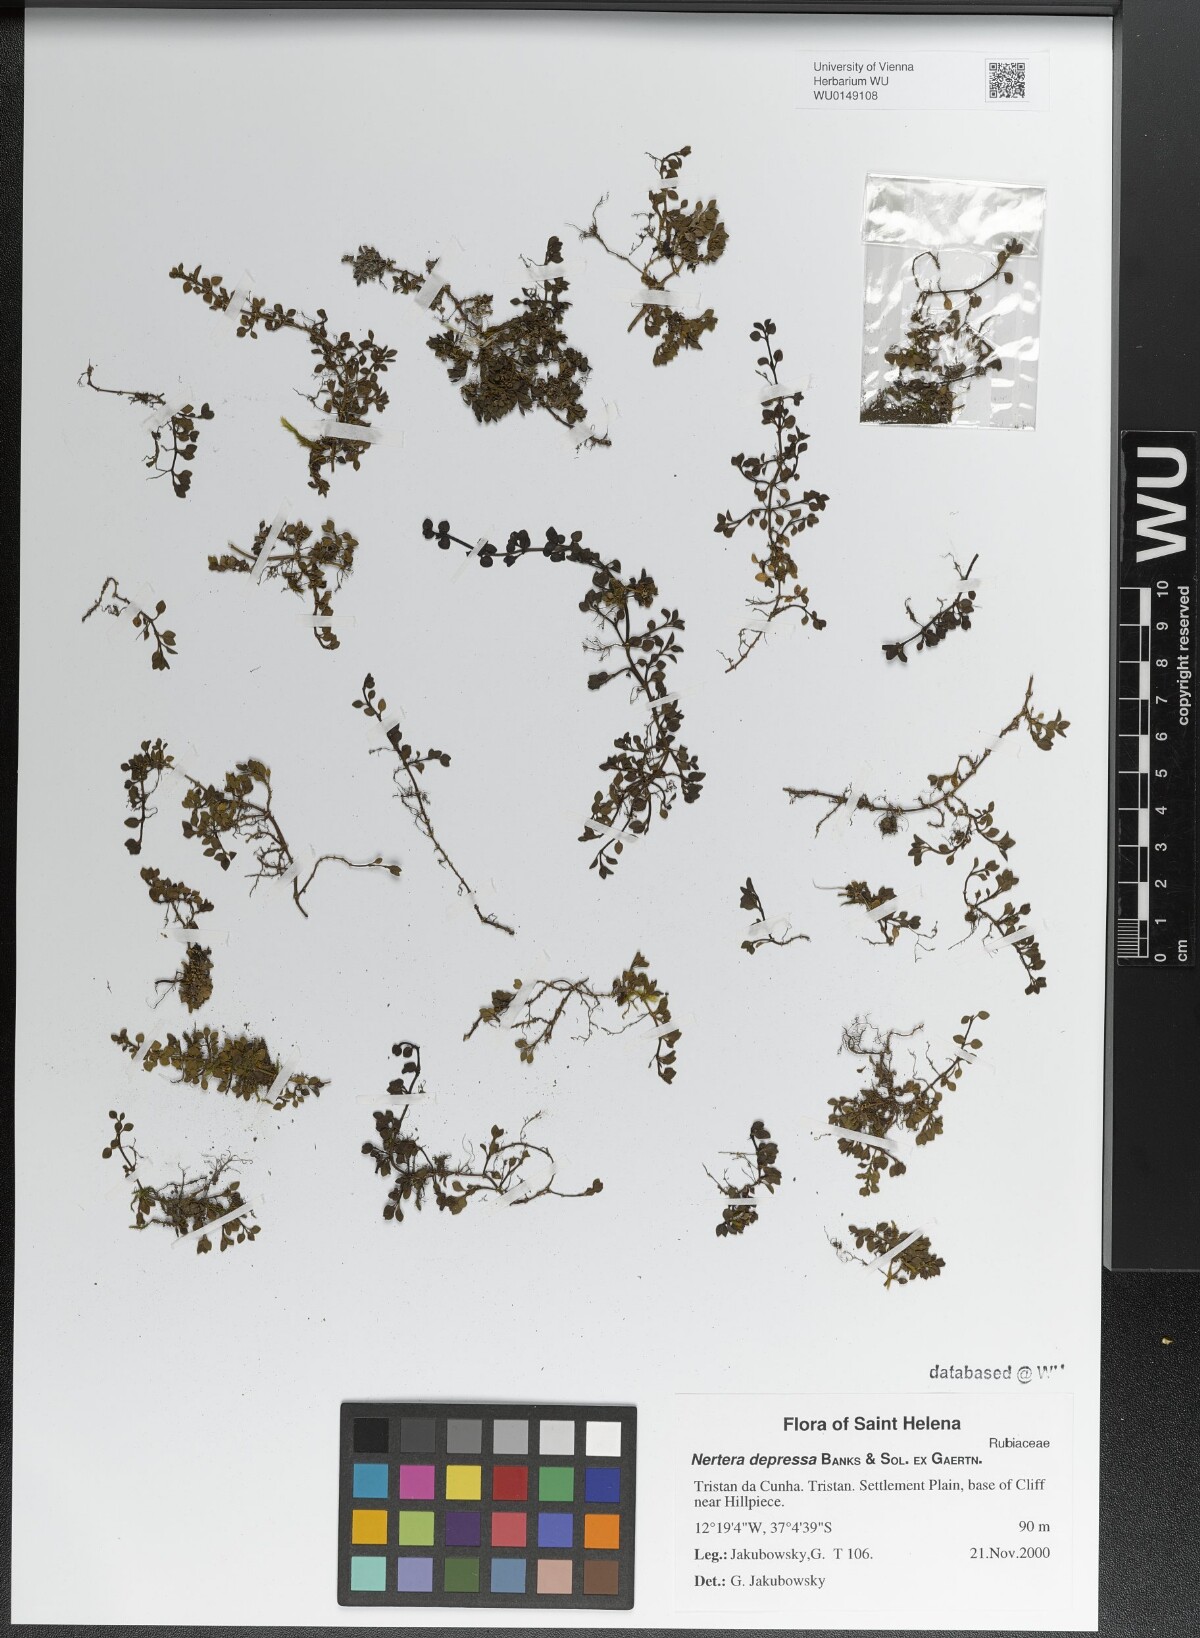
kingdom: Plantae
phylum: Tracheophyta
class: Magnoliopsida
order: Gentianales
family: Rubiaceae
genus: Nertera
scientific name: Nertera granadensis
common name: Beadplant
